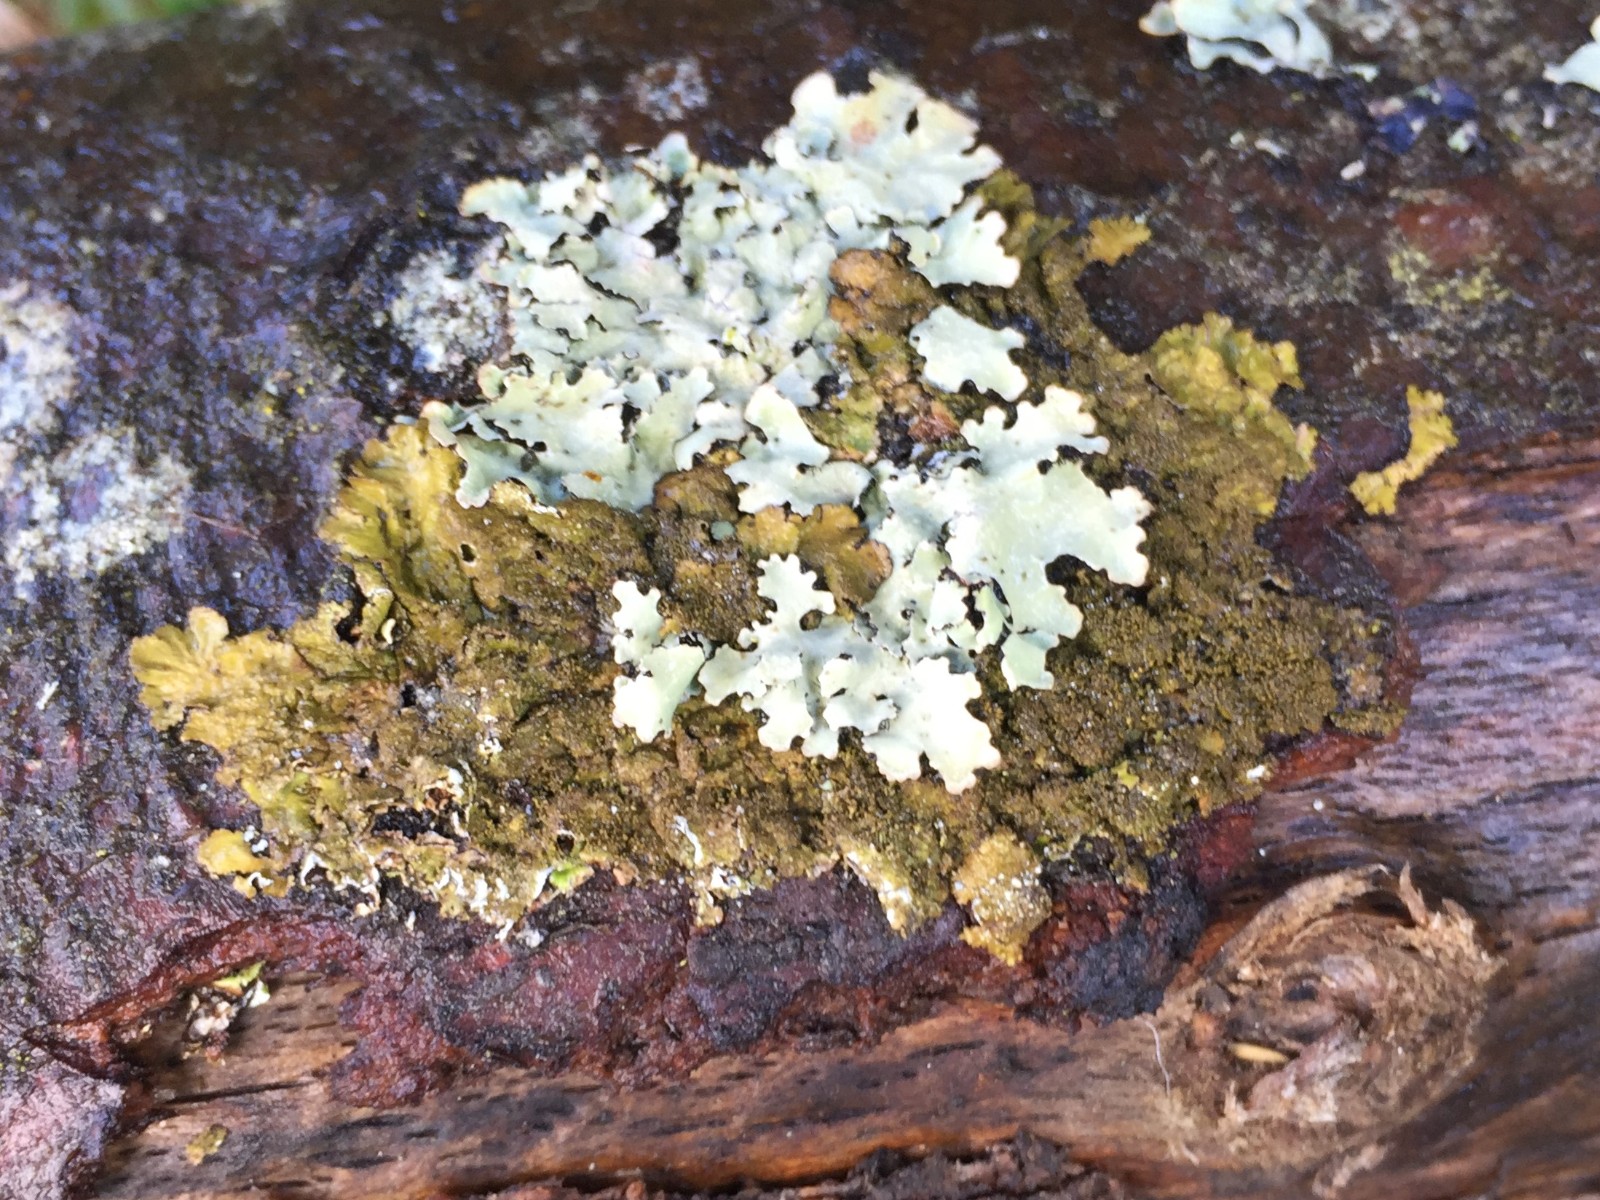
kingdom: Fungi
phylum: Ascomycota
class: Lecanoromycetes
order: Lecanorales
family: Parmeliaceae
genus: Melanelixia
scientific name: Melanelixia glabratula
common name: glinsende skållav
